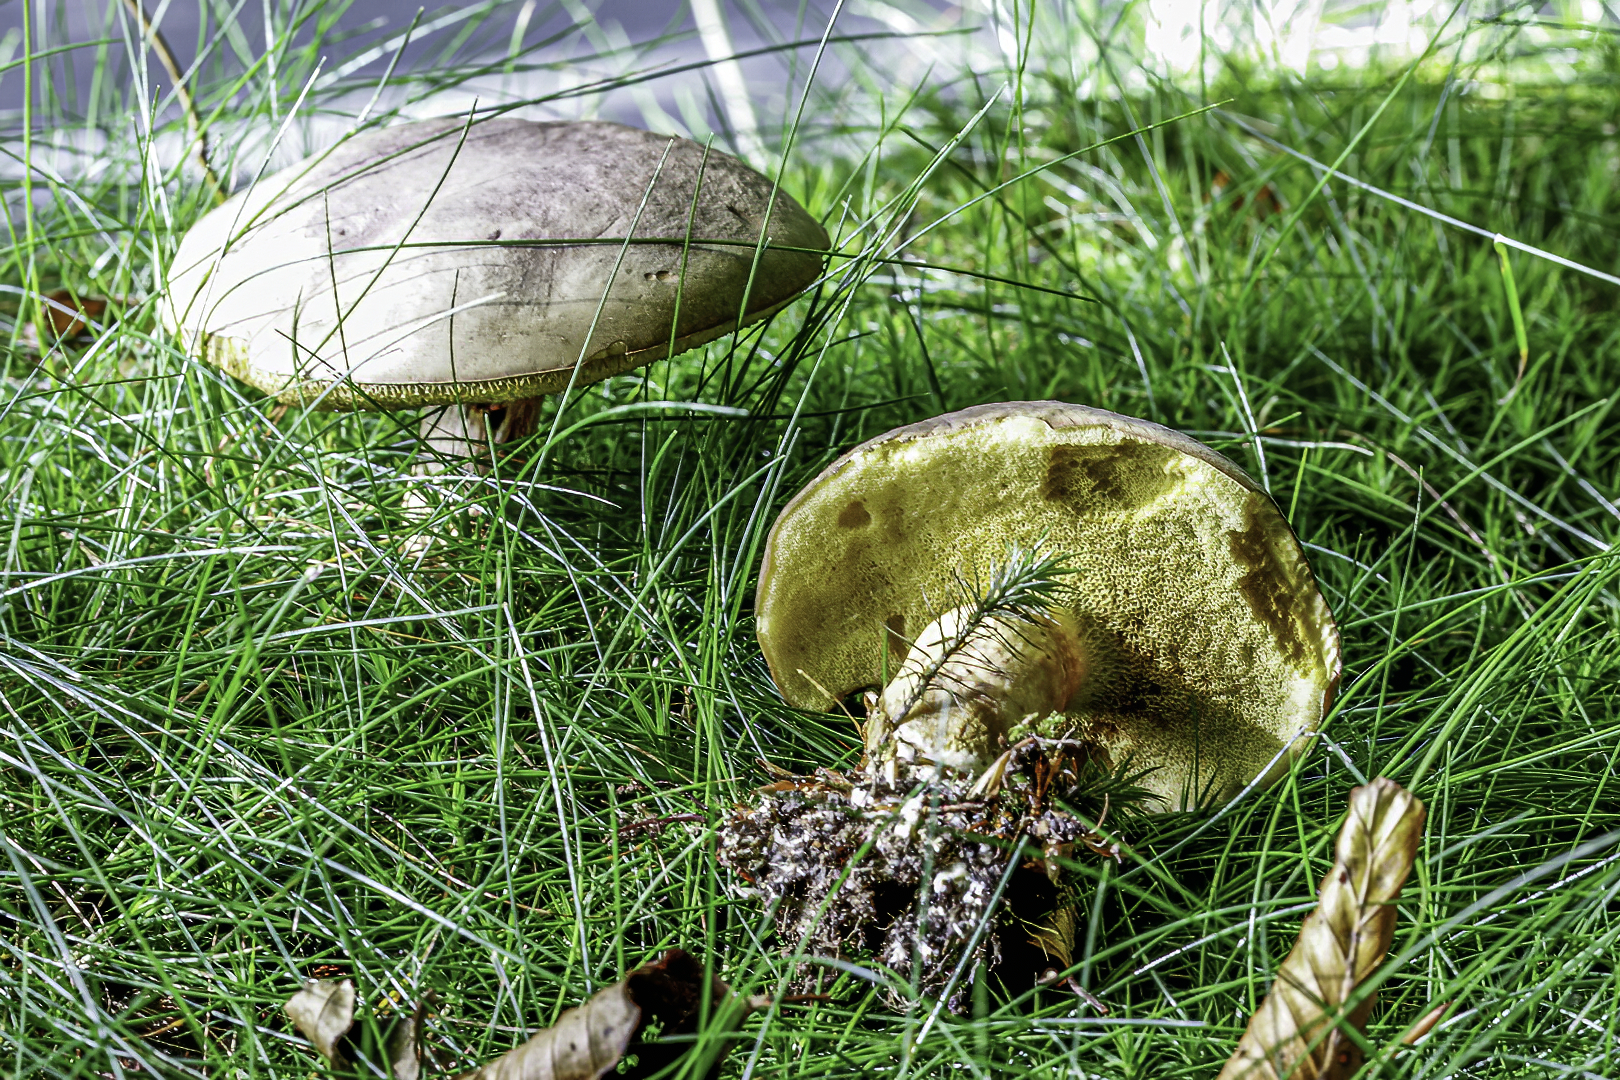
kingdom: Fungi
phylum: Basidiomycota
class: Agaricomycetes
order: Boletales
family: Boletaceae
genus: Xerocomus
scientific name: Xerocomus
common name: filtrørhat
